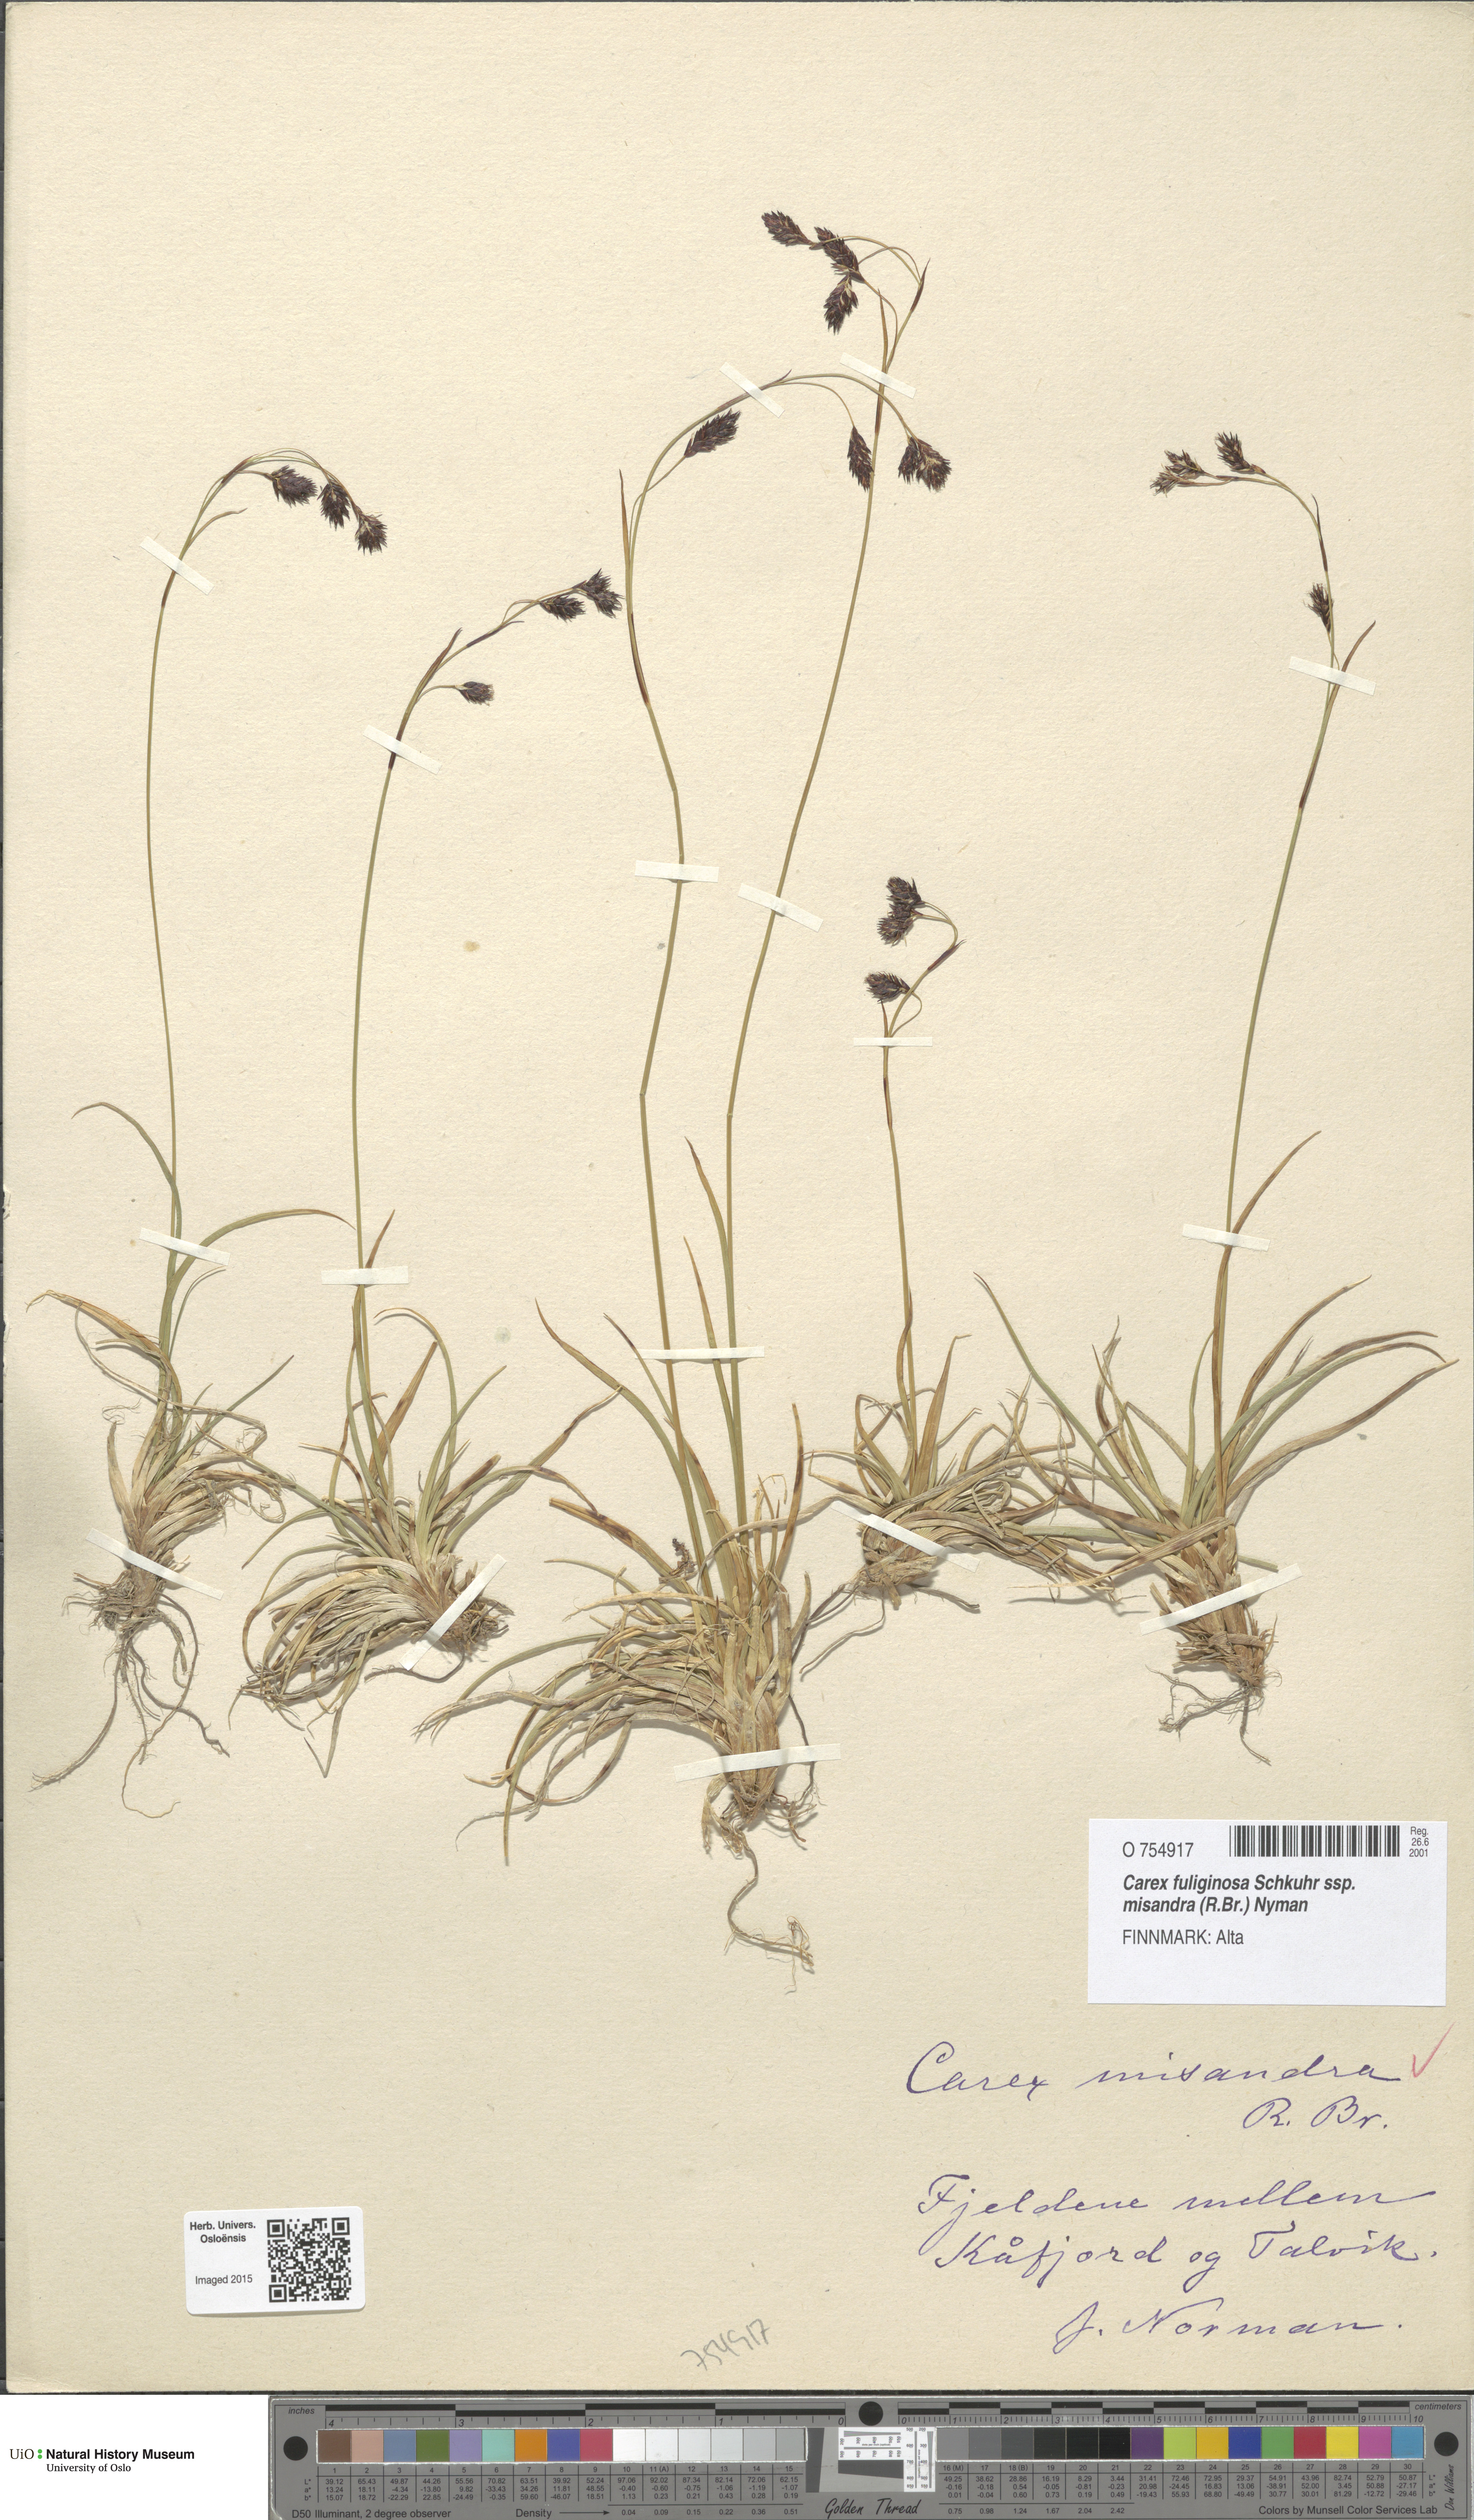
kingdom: Plantae
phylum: Tracheophyta
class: Liliopsida
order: Poales
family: Cyperaceae
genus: Carex
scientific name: Carex fuliginosa
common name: Few-flowered sedge
